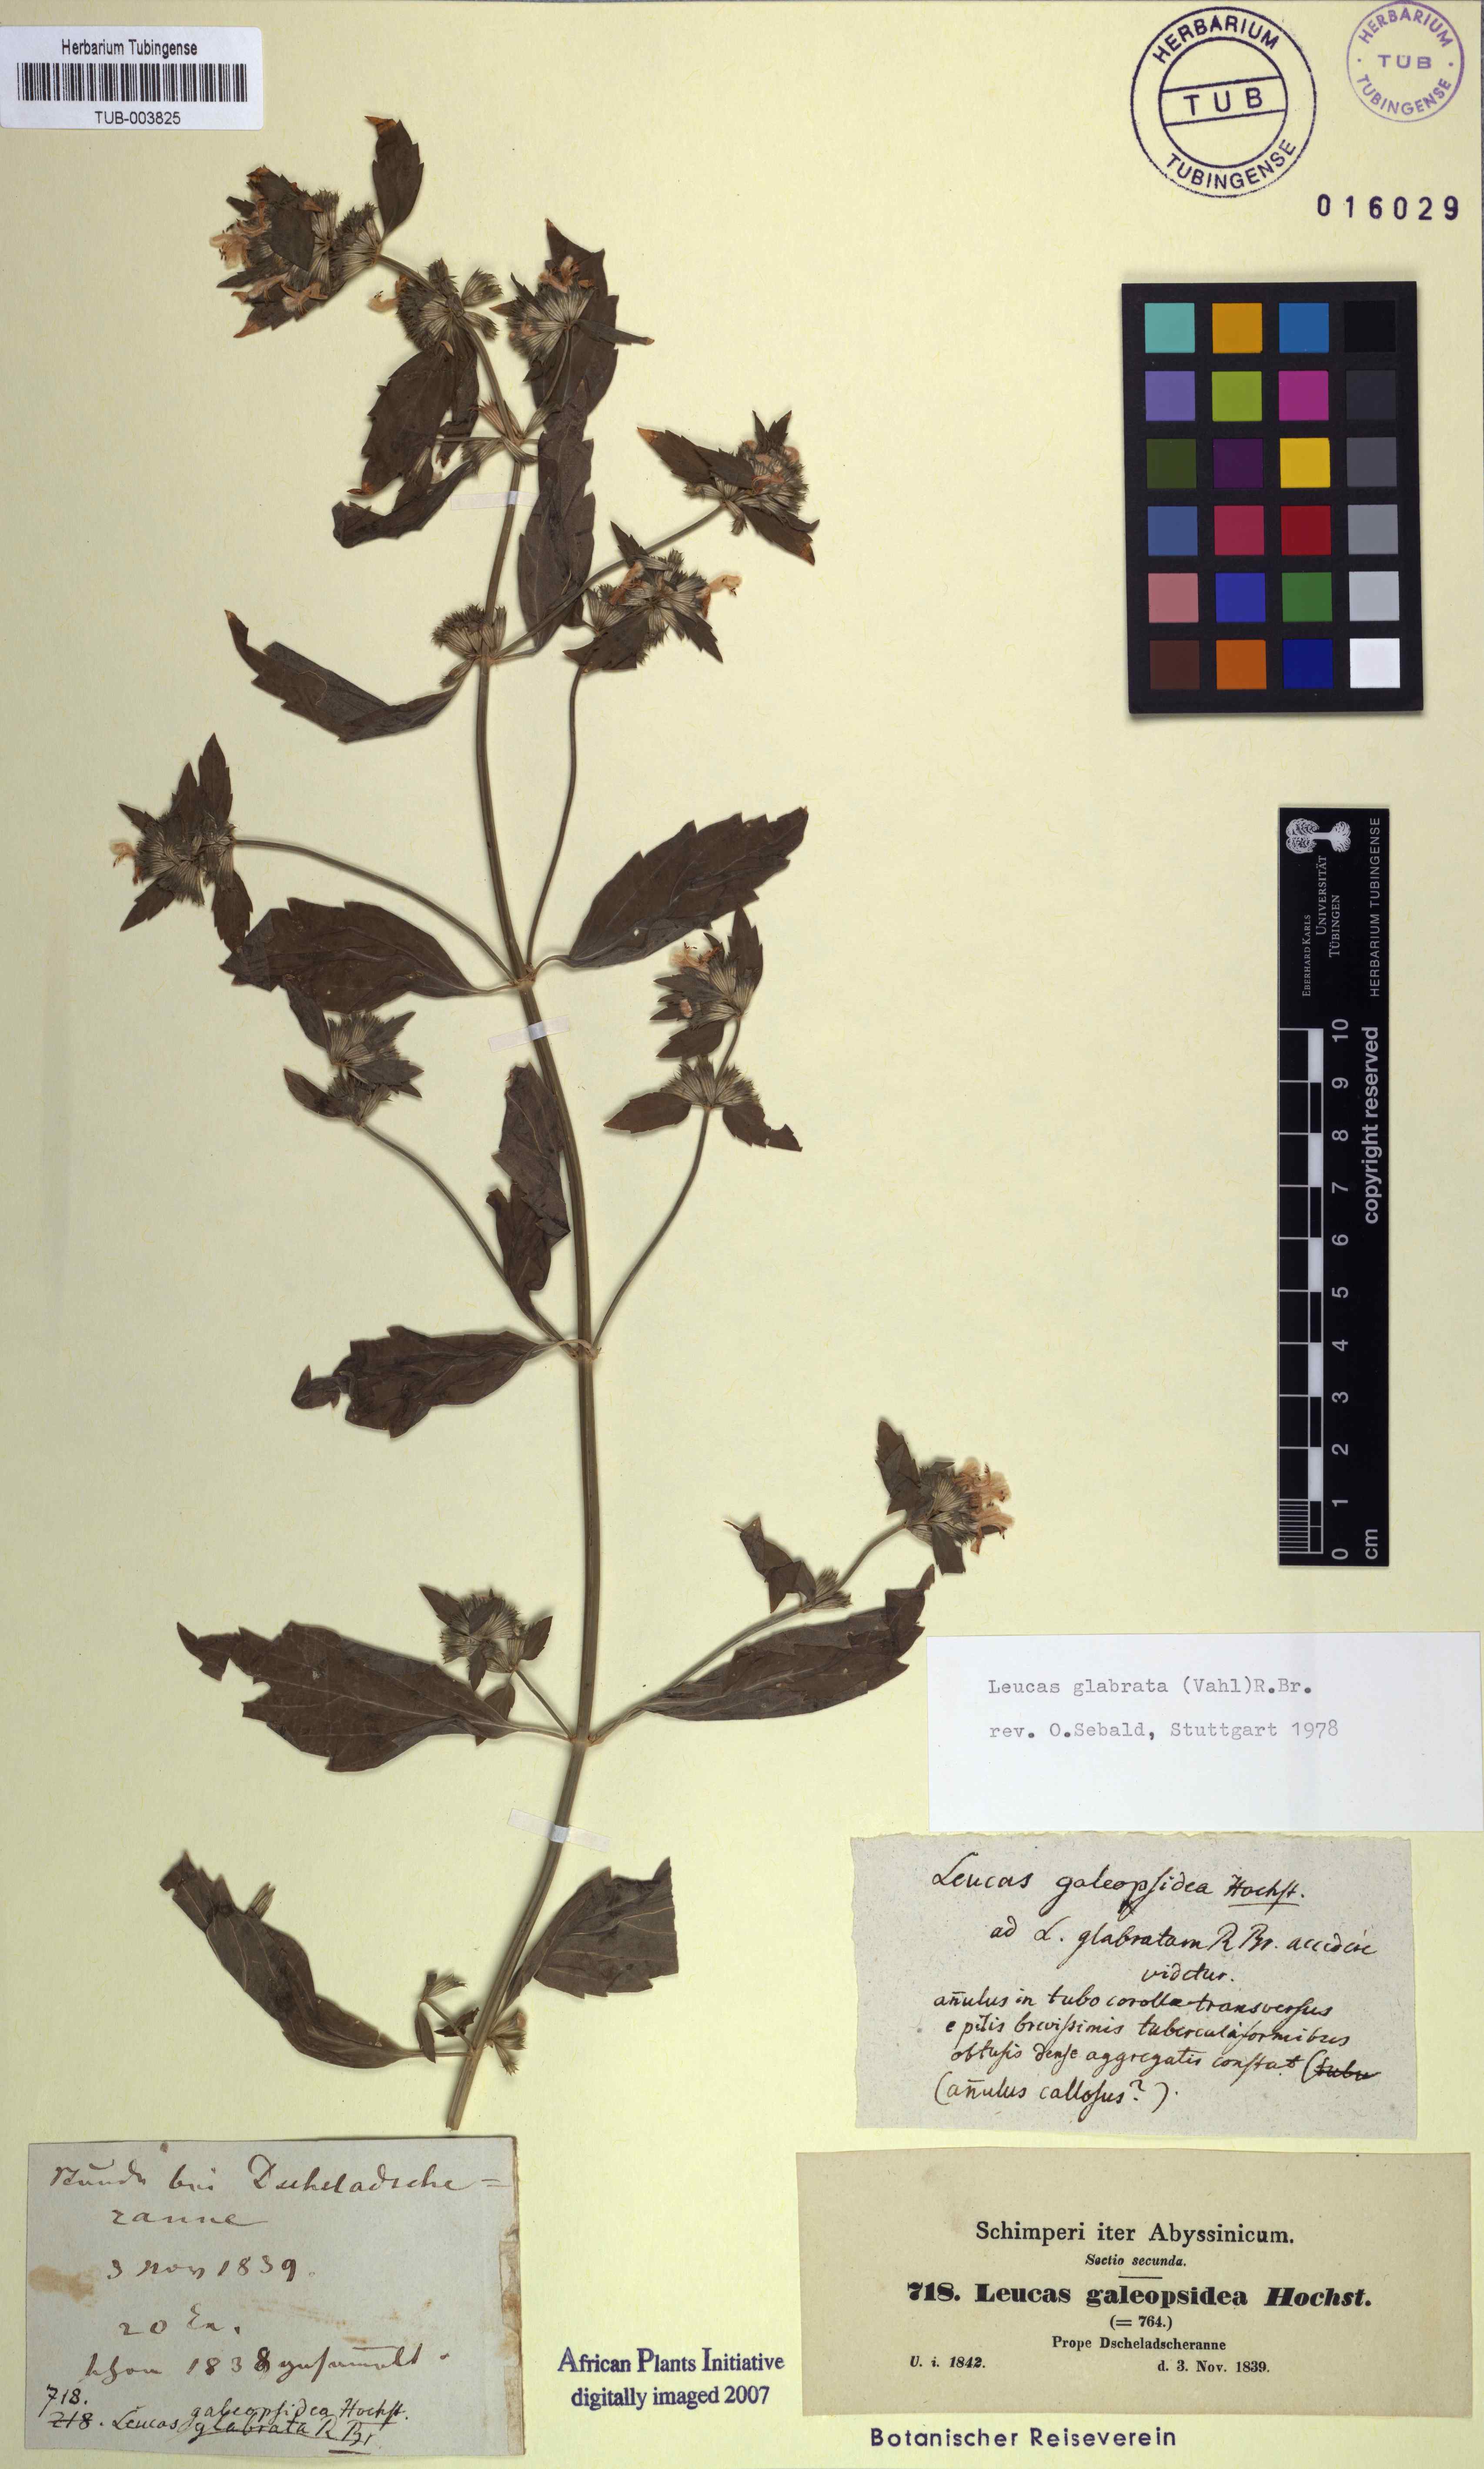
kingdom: Plantae
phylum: Tracheophyta
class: Magnoliopsida
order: Lamiales
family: Lamiaceae
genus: Leucas
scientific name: Leucas glabrata
